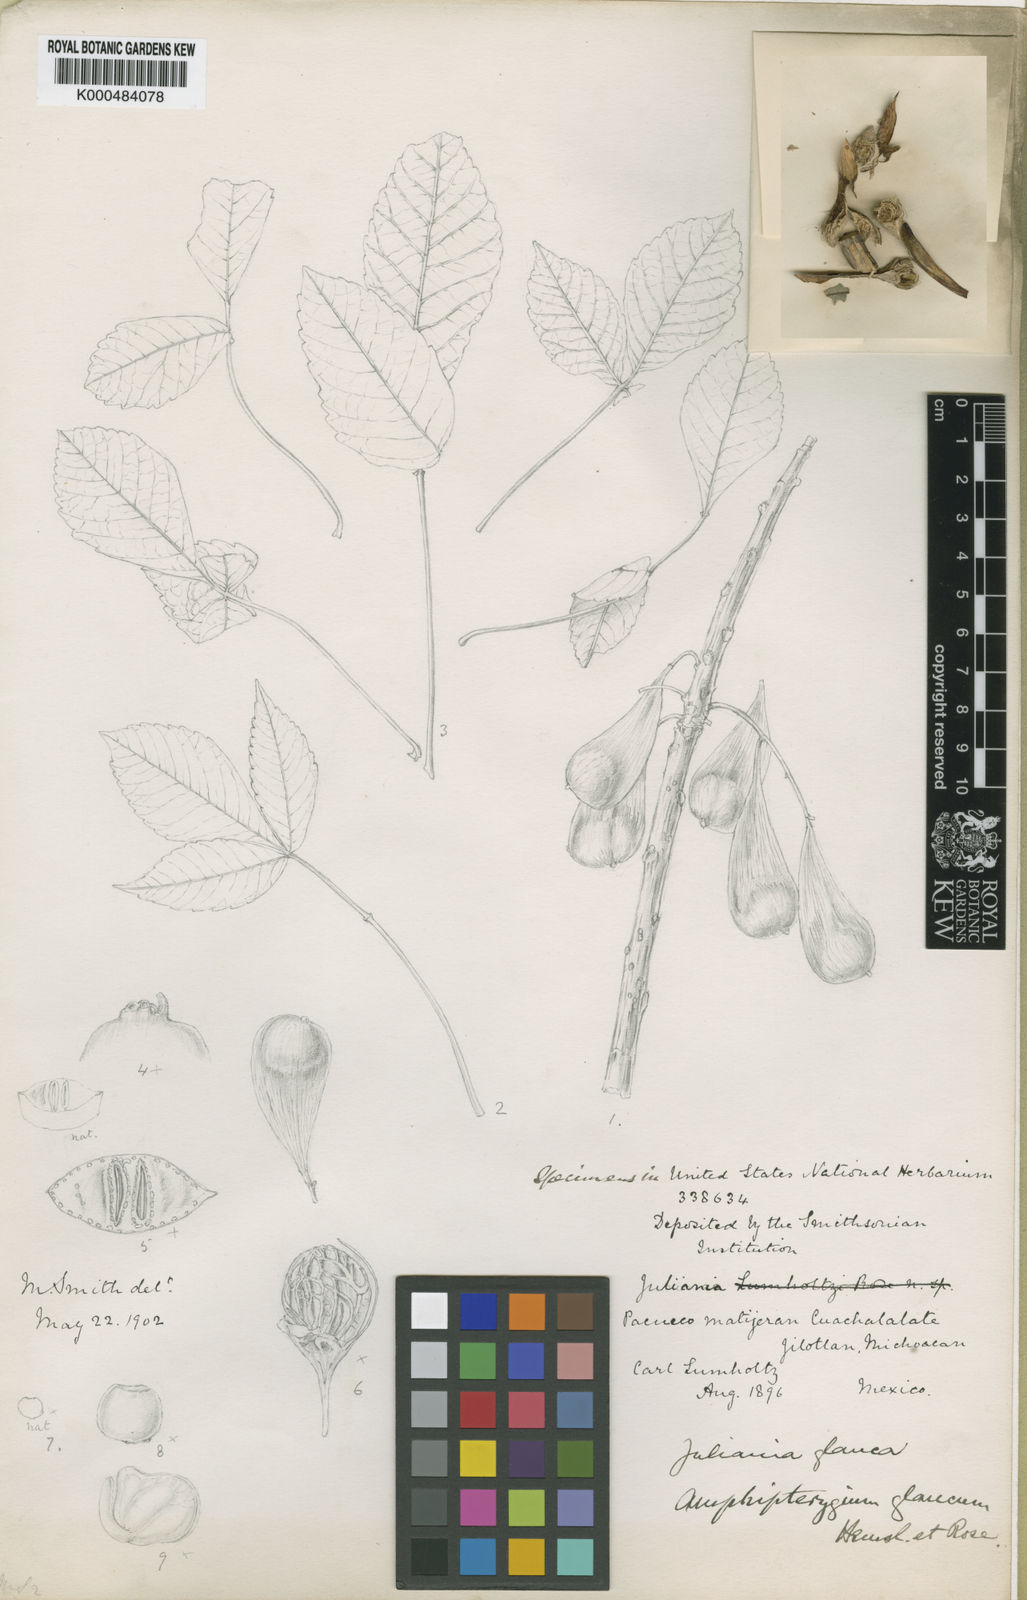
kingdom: Plantae
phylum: Tracheophyta
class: Magnoliopsida
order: Sapindales
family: Anacardiaceae
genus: Amphipterygium
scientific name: Amphipterygium
